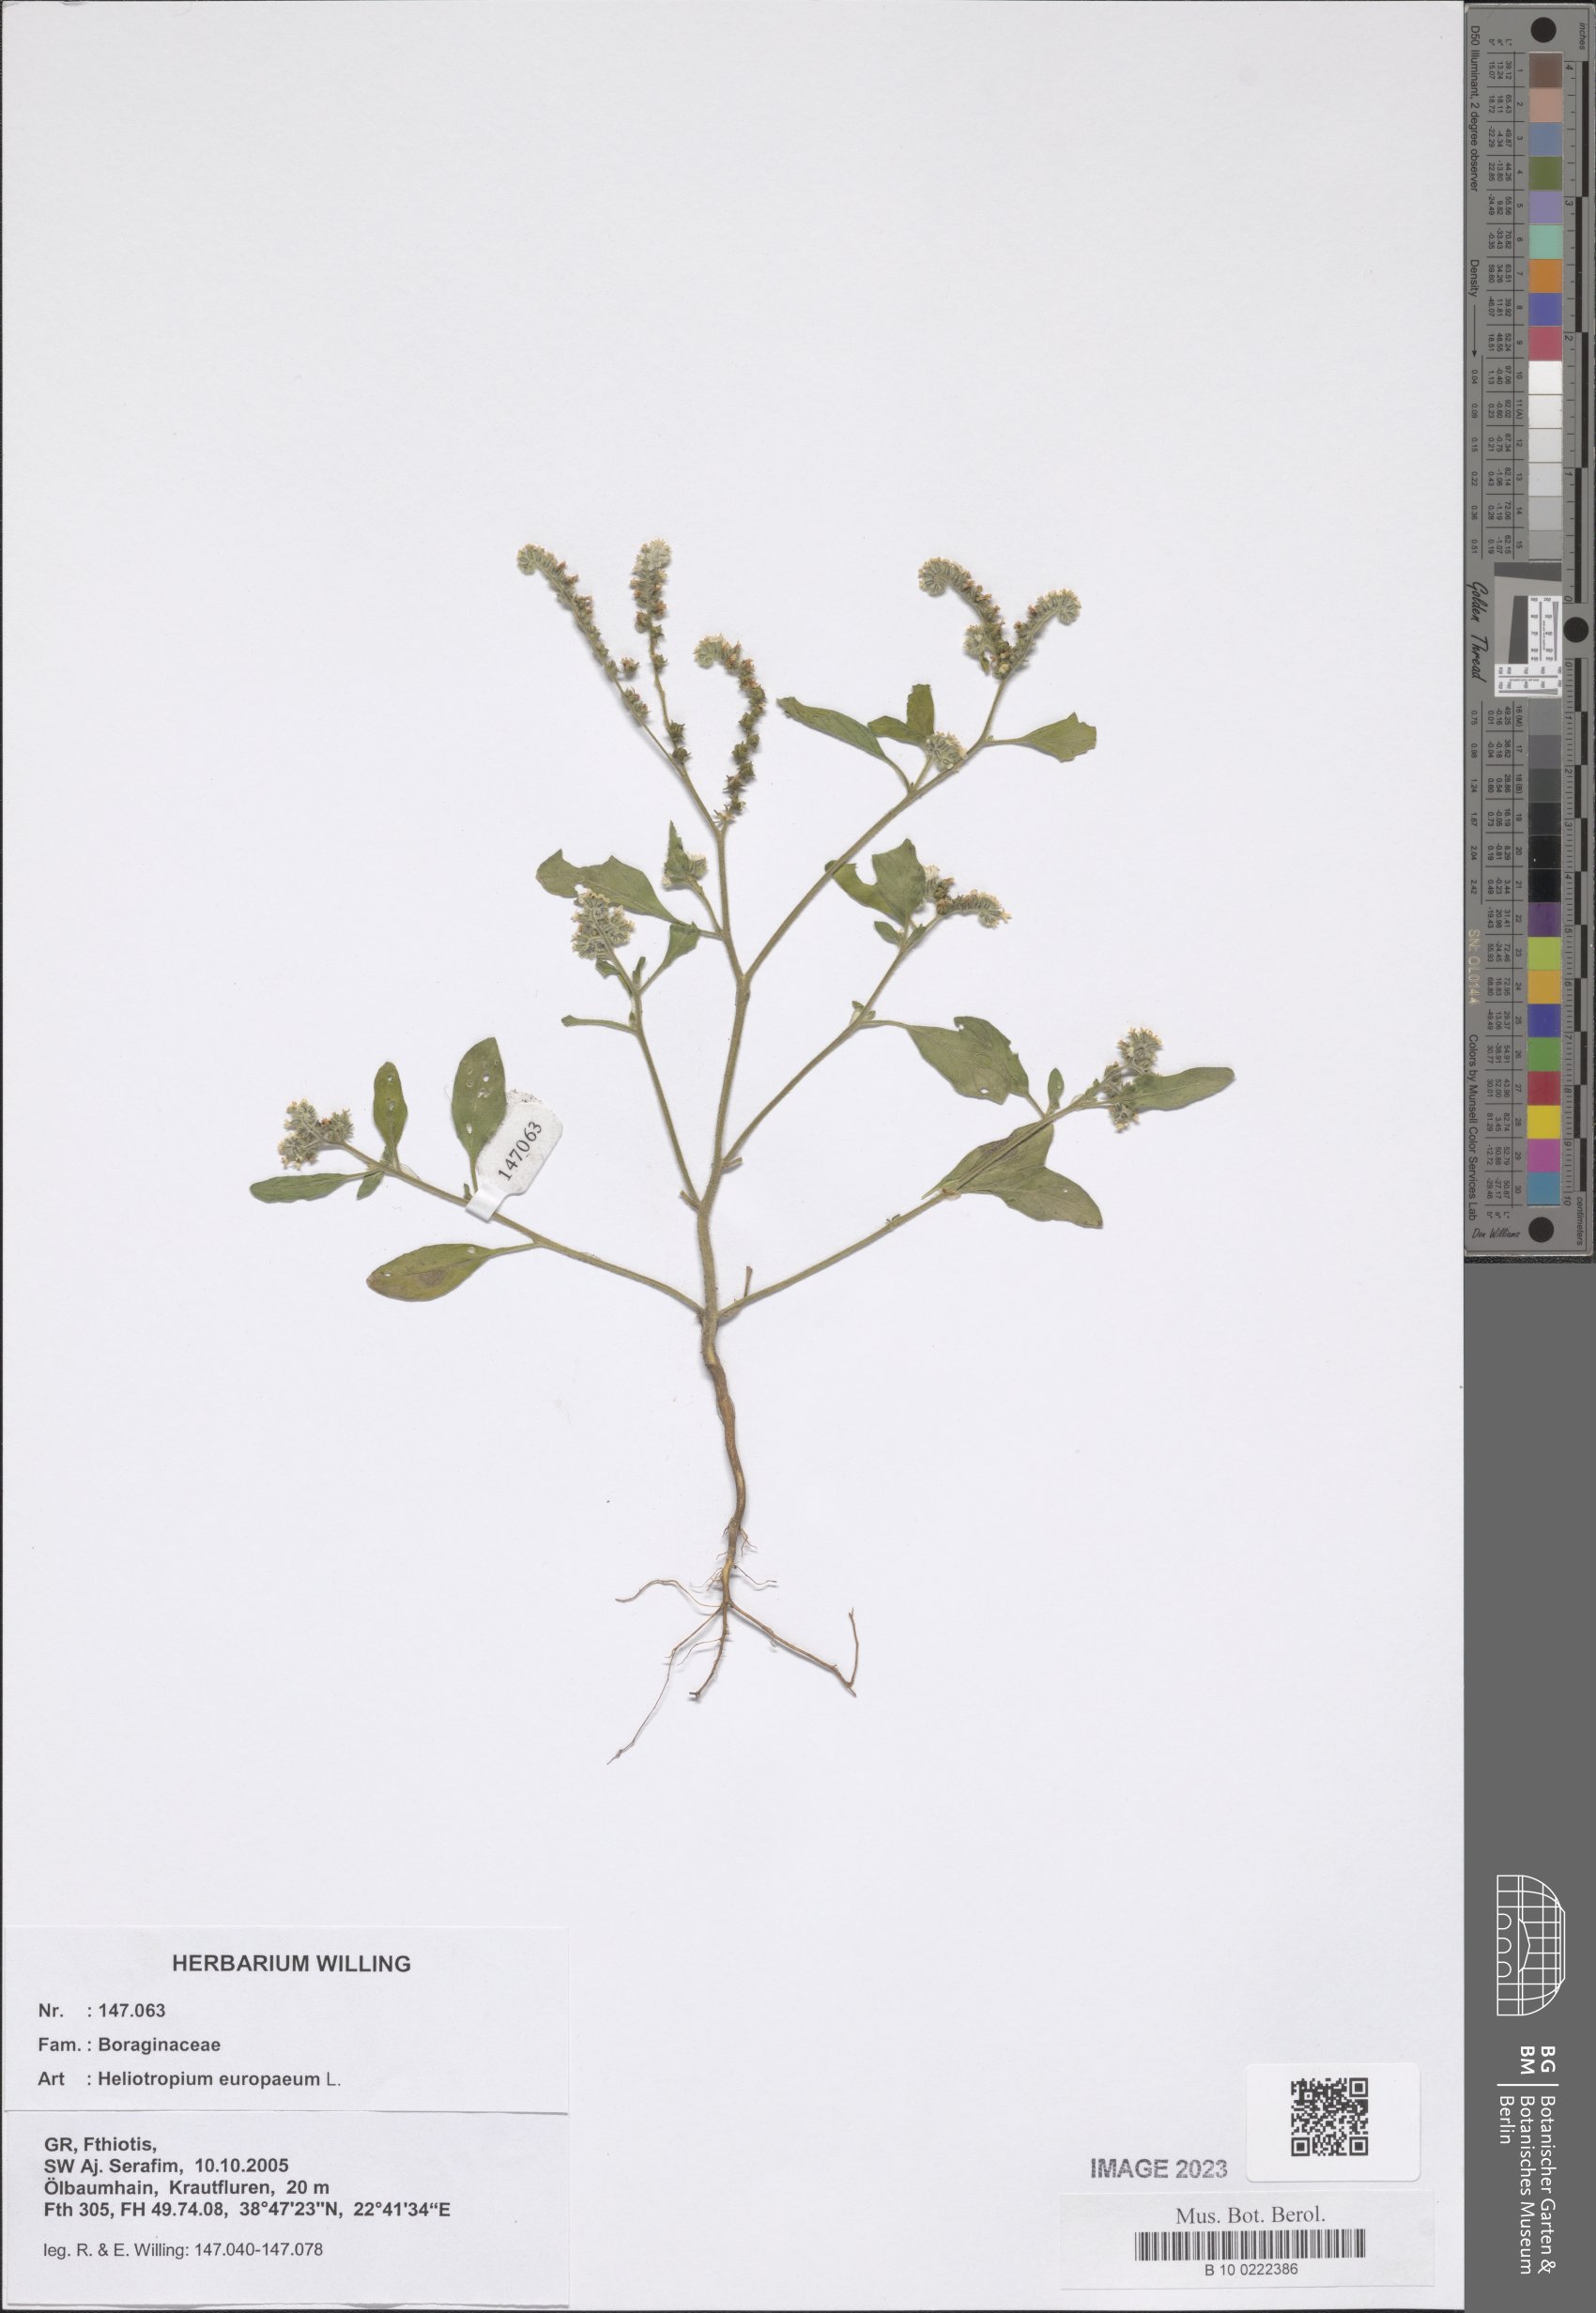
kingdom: Plantae
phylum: Tracheophyta
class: Magnoliopsida
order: Boraginales
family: Heliotropiaceae
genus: Heliotropium
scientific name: Heliotropium europaeum
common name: European heliotrope
